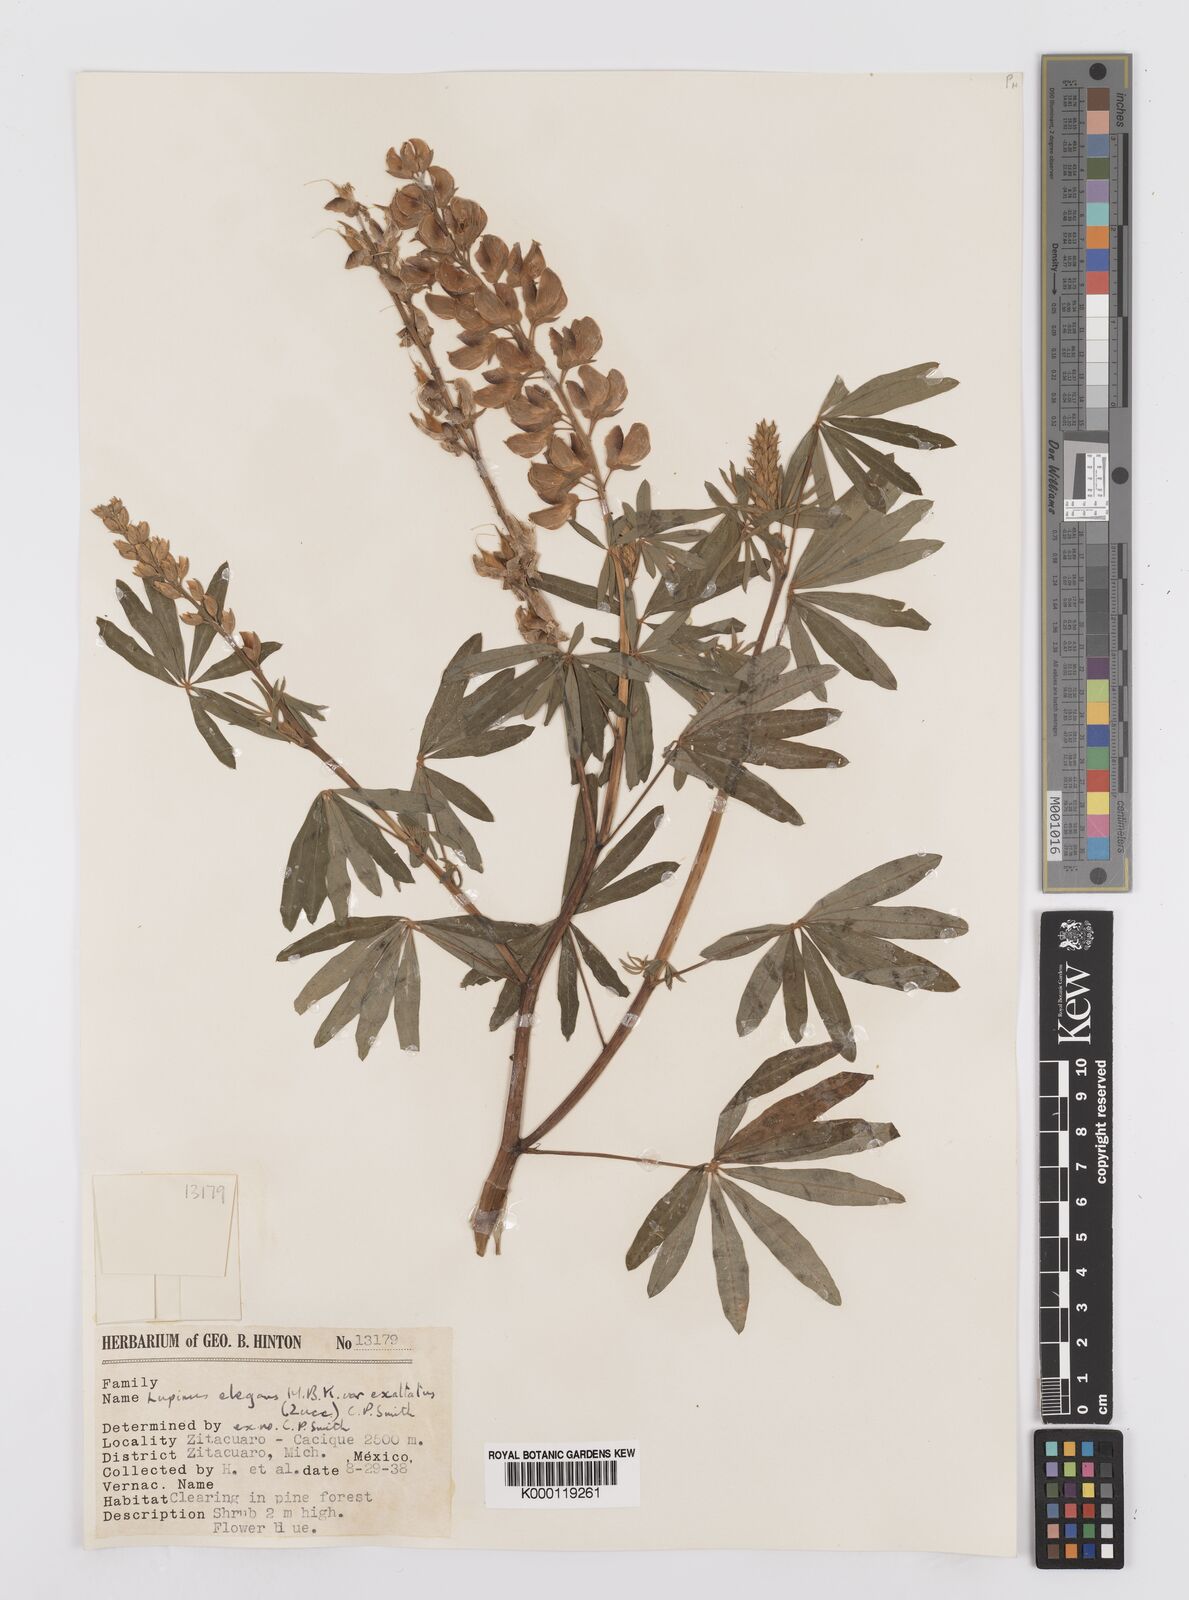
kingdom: Plantae
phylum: Tracheophyta
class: Magnoliopsida
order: Fabales
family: Fabaceae
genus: Lupinus
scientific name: Lupinus elegans
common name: Mexican lupine
